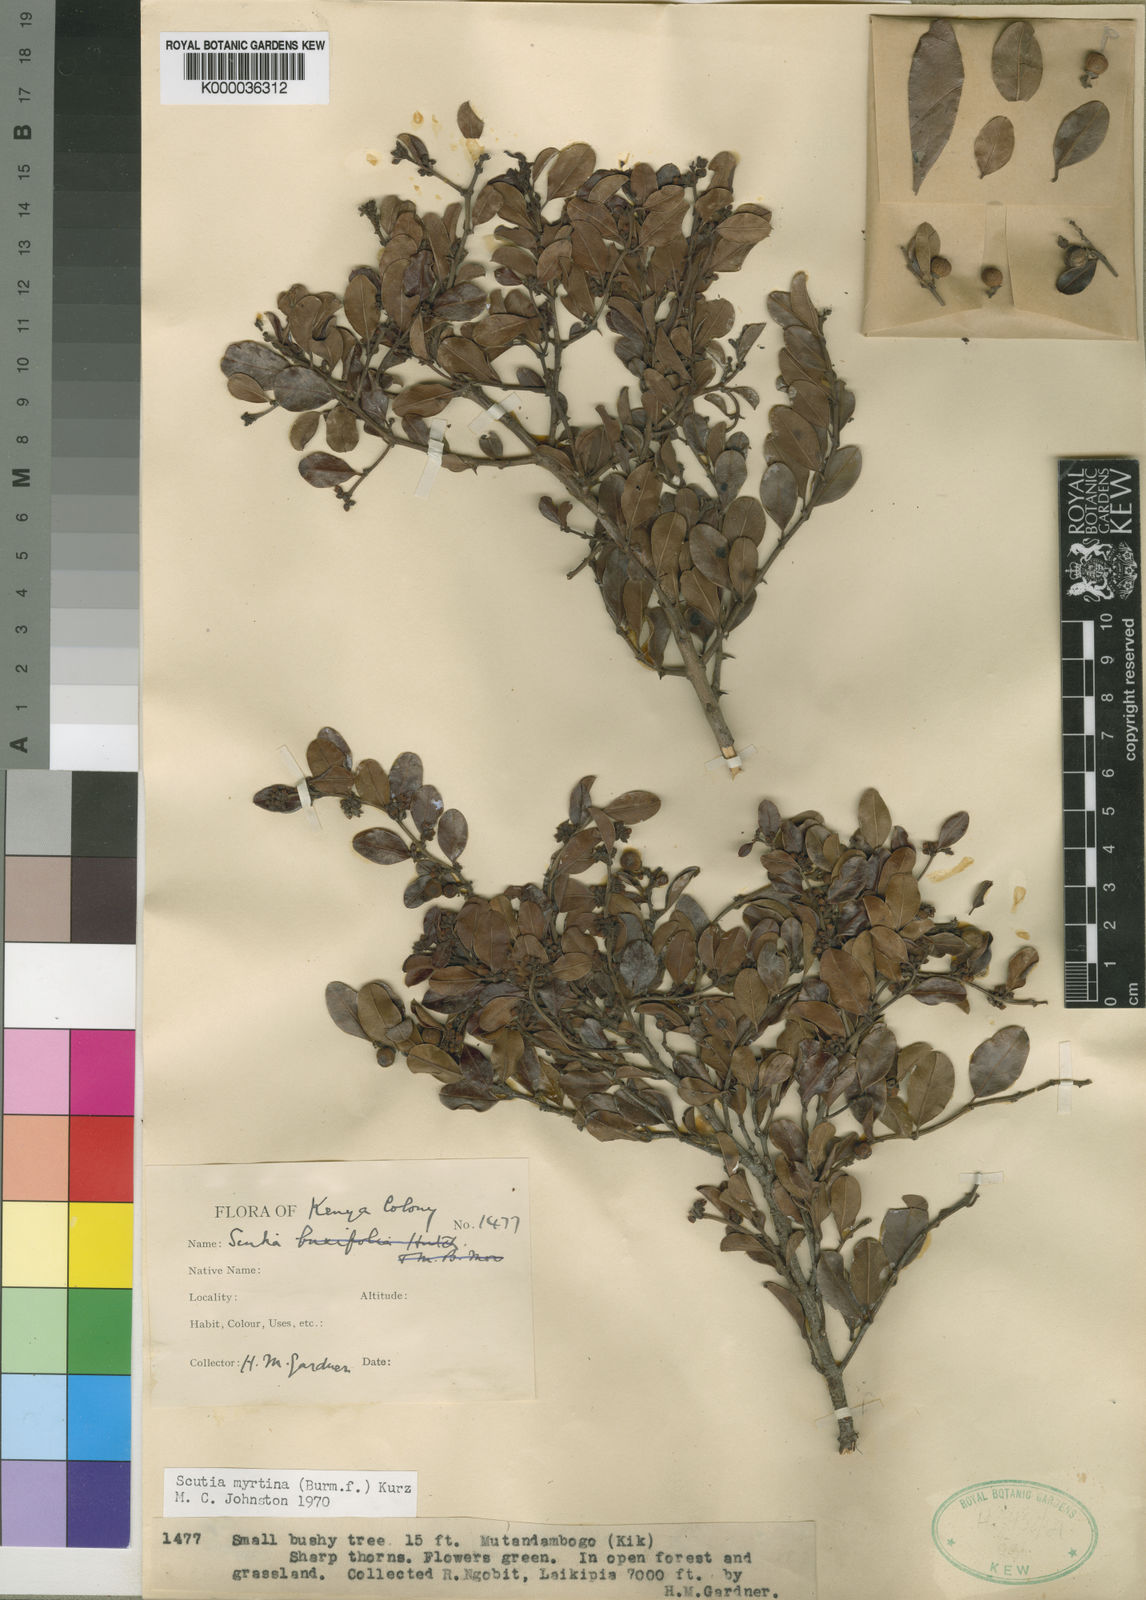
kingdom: Plantae
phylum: Tracheophyta
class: Magnoliopsida
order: Rosales
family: Rhamnaceae
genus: Scutia
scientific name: Scutia myrtina
